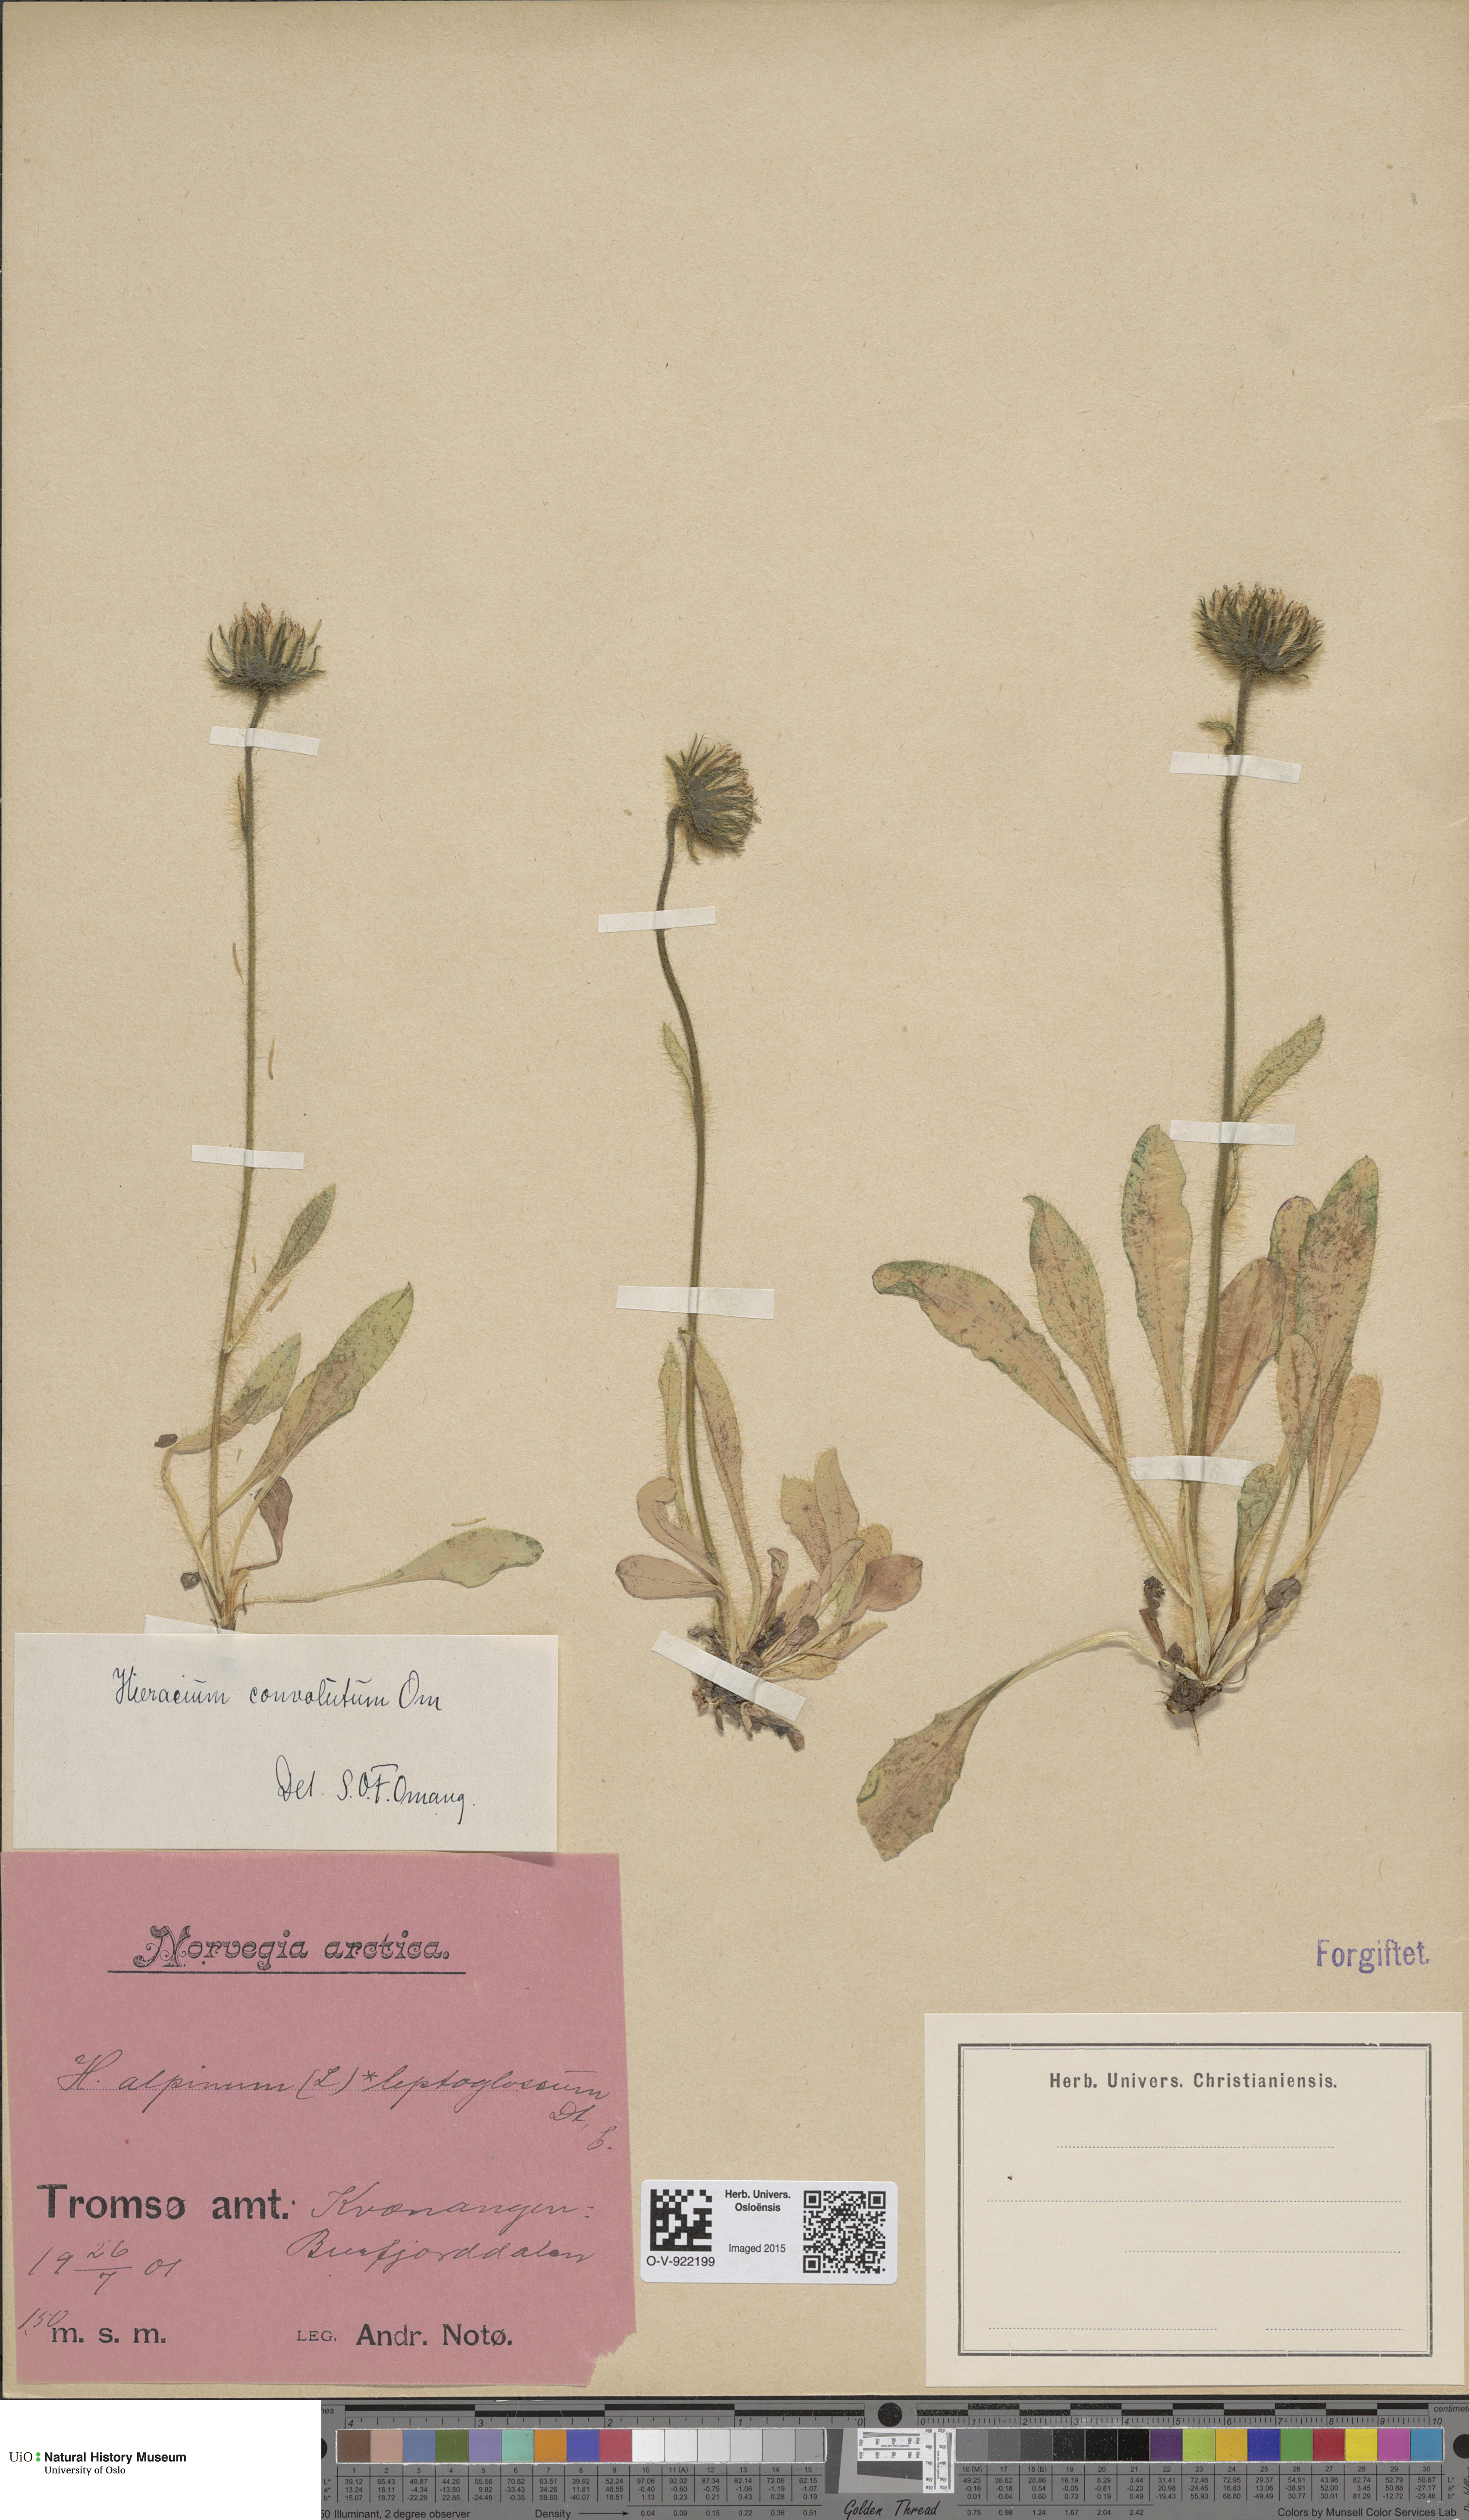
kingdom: Plantae
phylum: Tracheophyta
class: Magnoliopsida
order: Asterales
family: Asteraceae
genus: Hieracium
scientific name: Hieracium alpinum
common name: Alpine hawkweed
